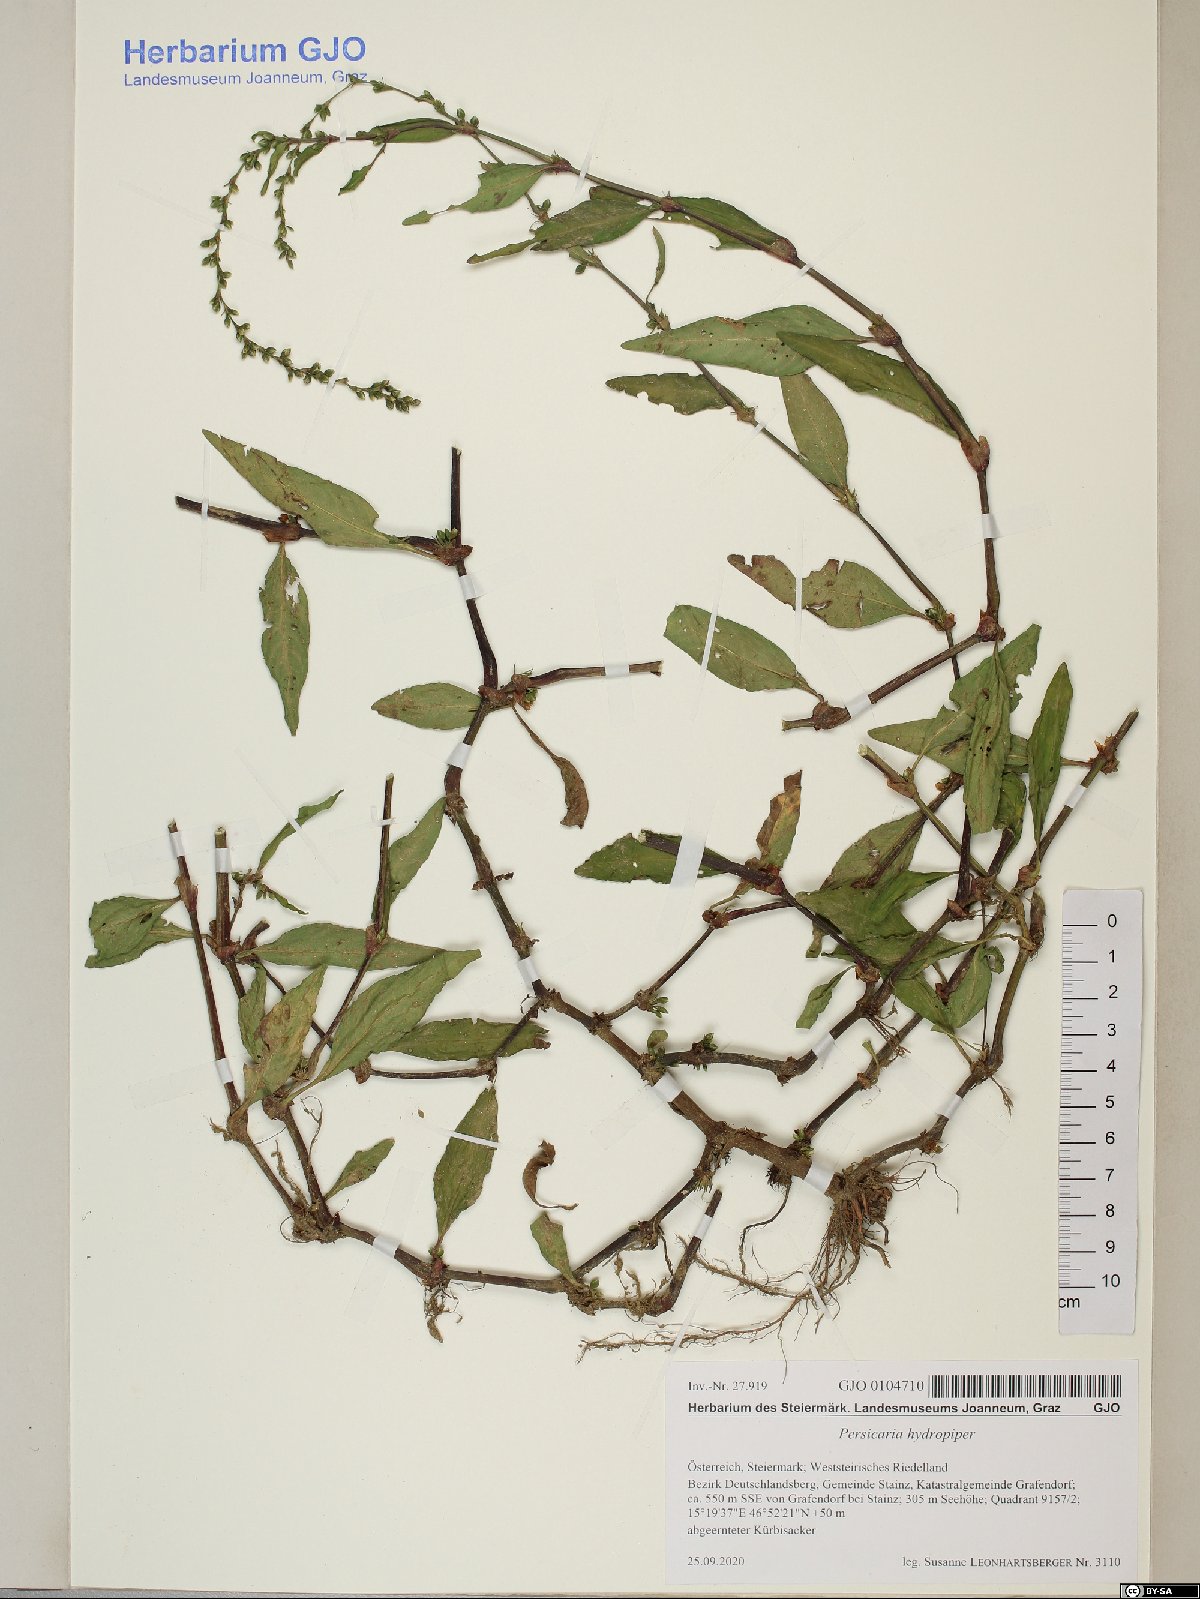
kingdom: Plantae
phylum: Tracheophyta
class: Magnoliopsida
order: Caryophyllales
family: Polygonaceae
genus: Persicaria
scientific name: Persicaria hydropiper
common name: Water-pepper
